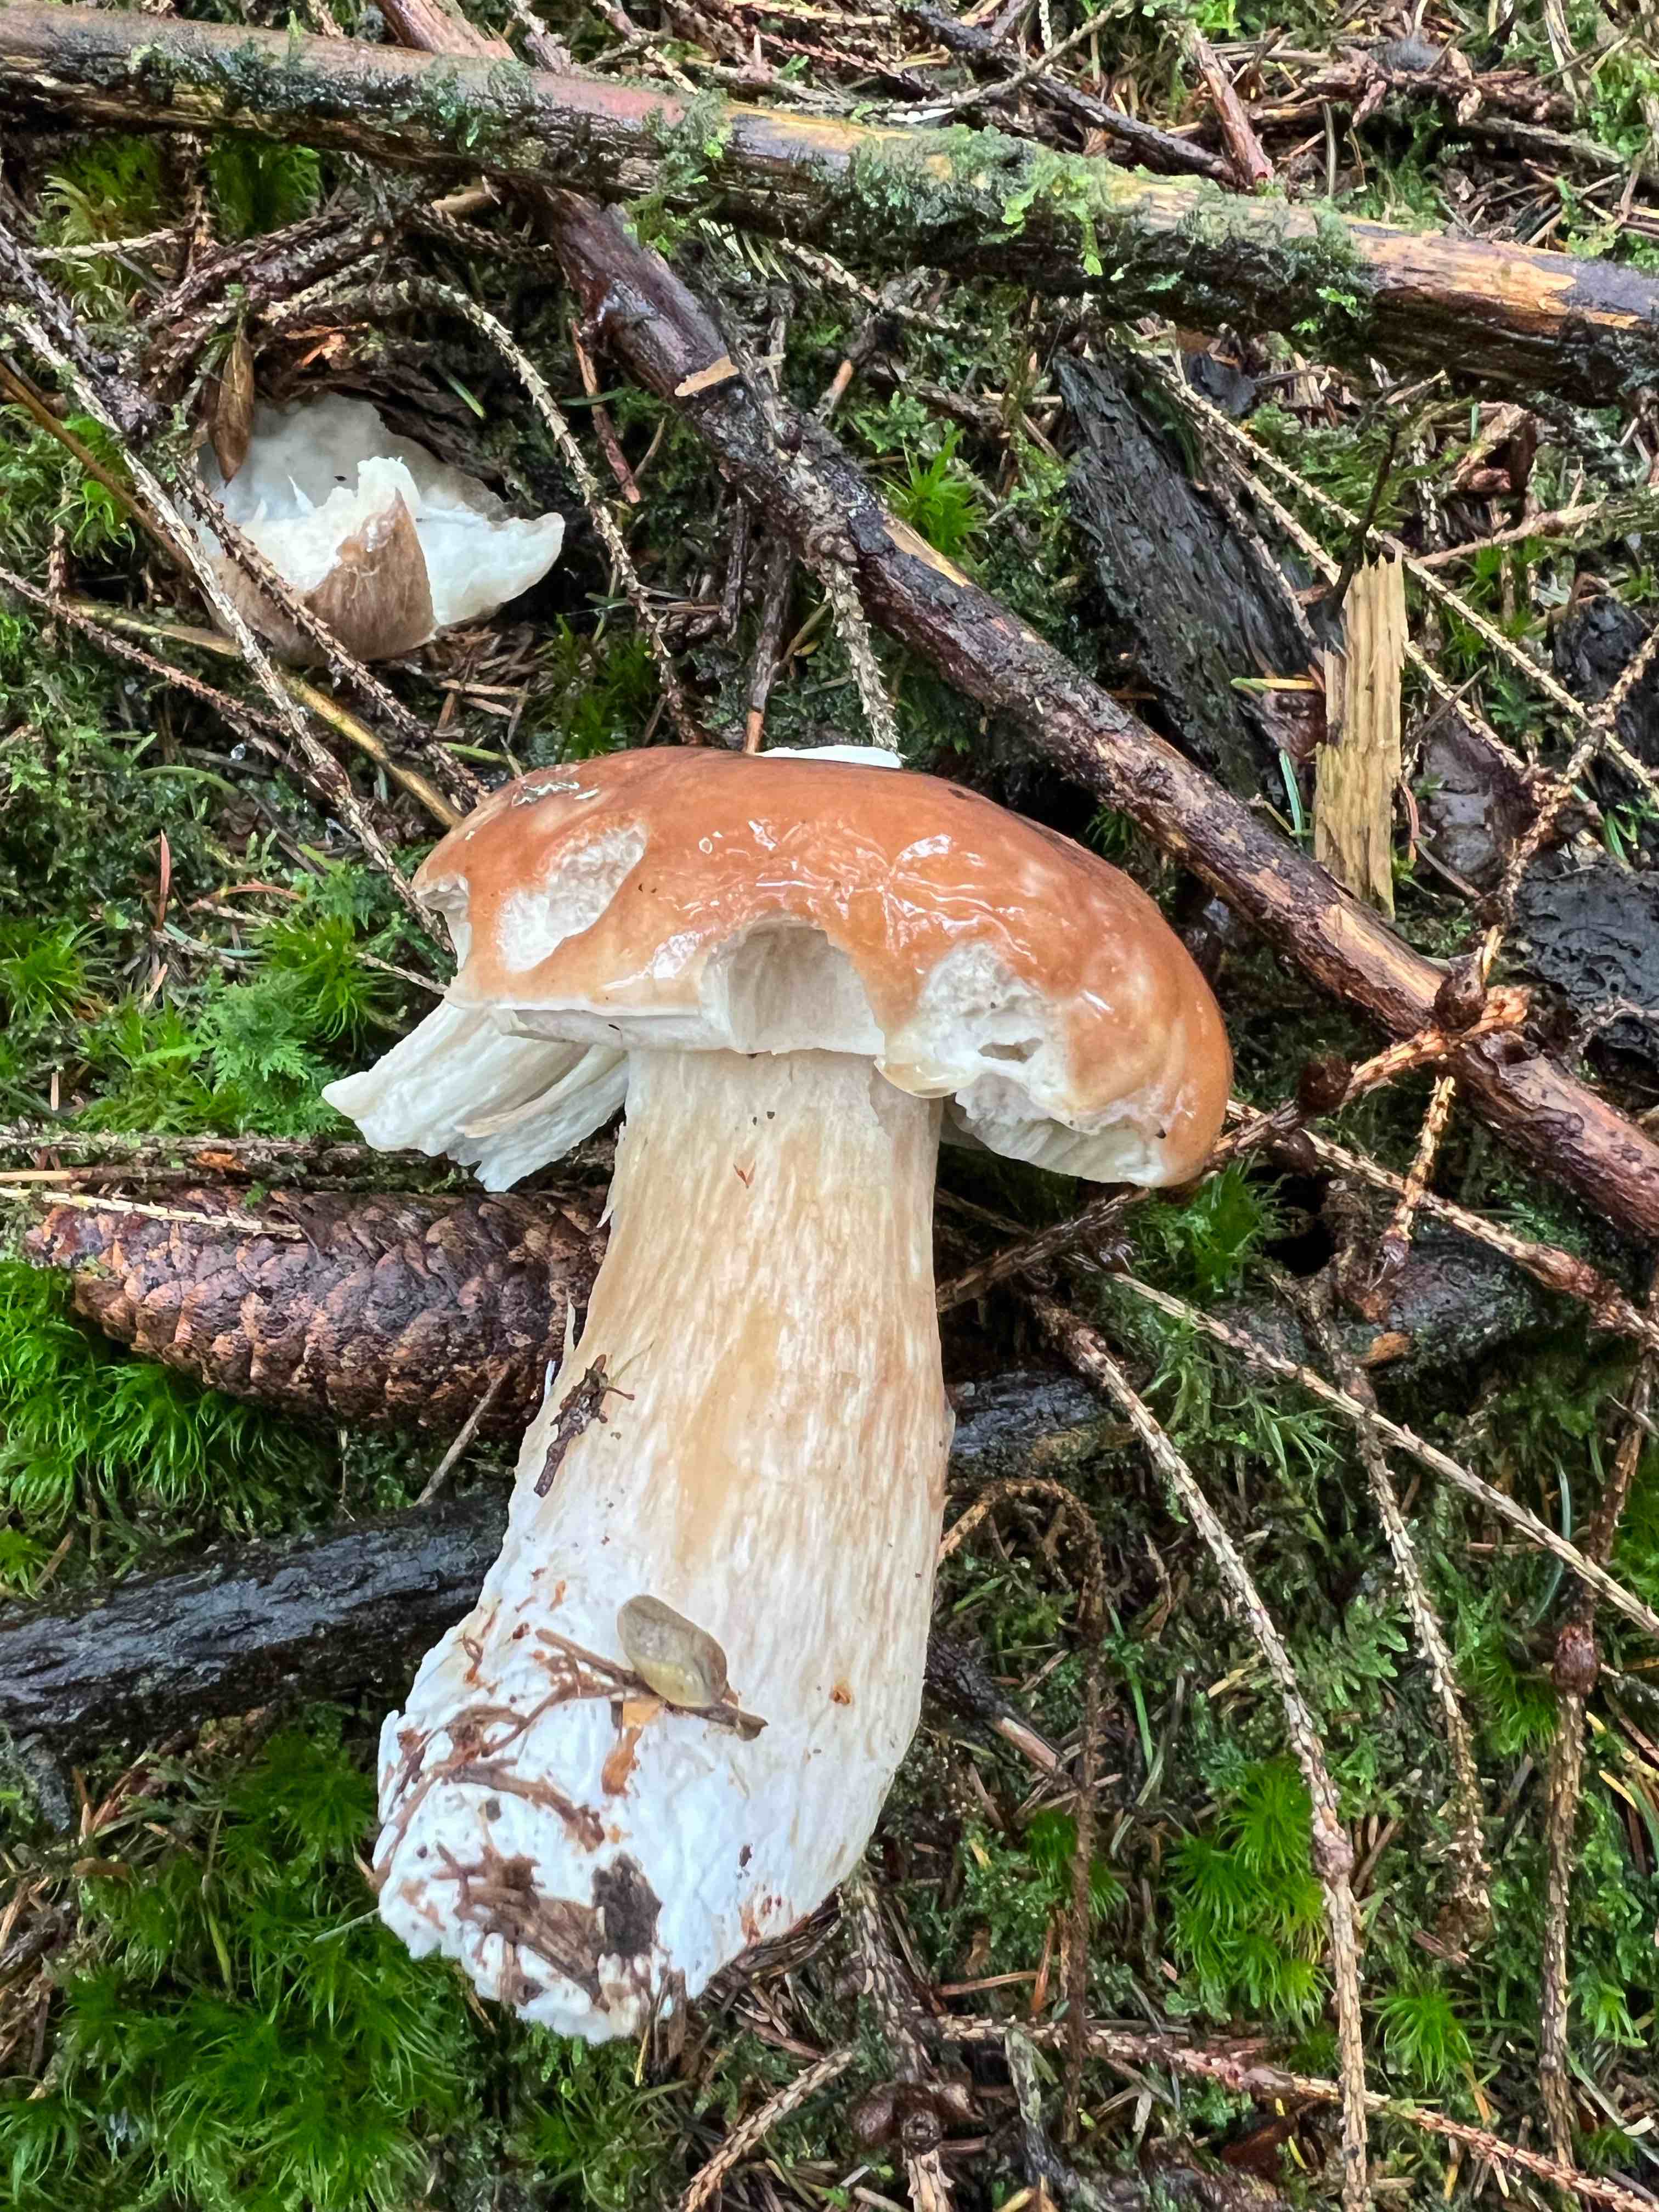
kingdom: Fungi
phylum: Basidiomycota
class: Agaricomycetes
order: Boletales
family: Boletaceae
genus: Boletus
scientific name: Boletus edulis
